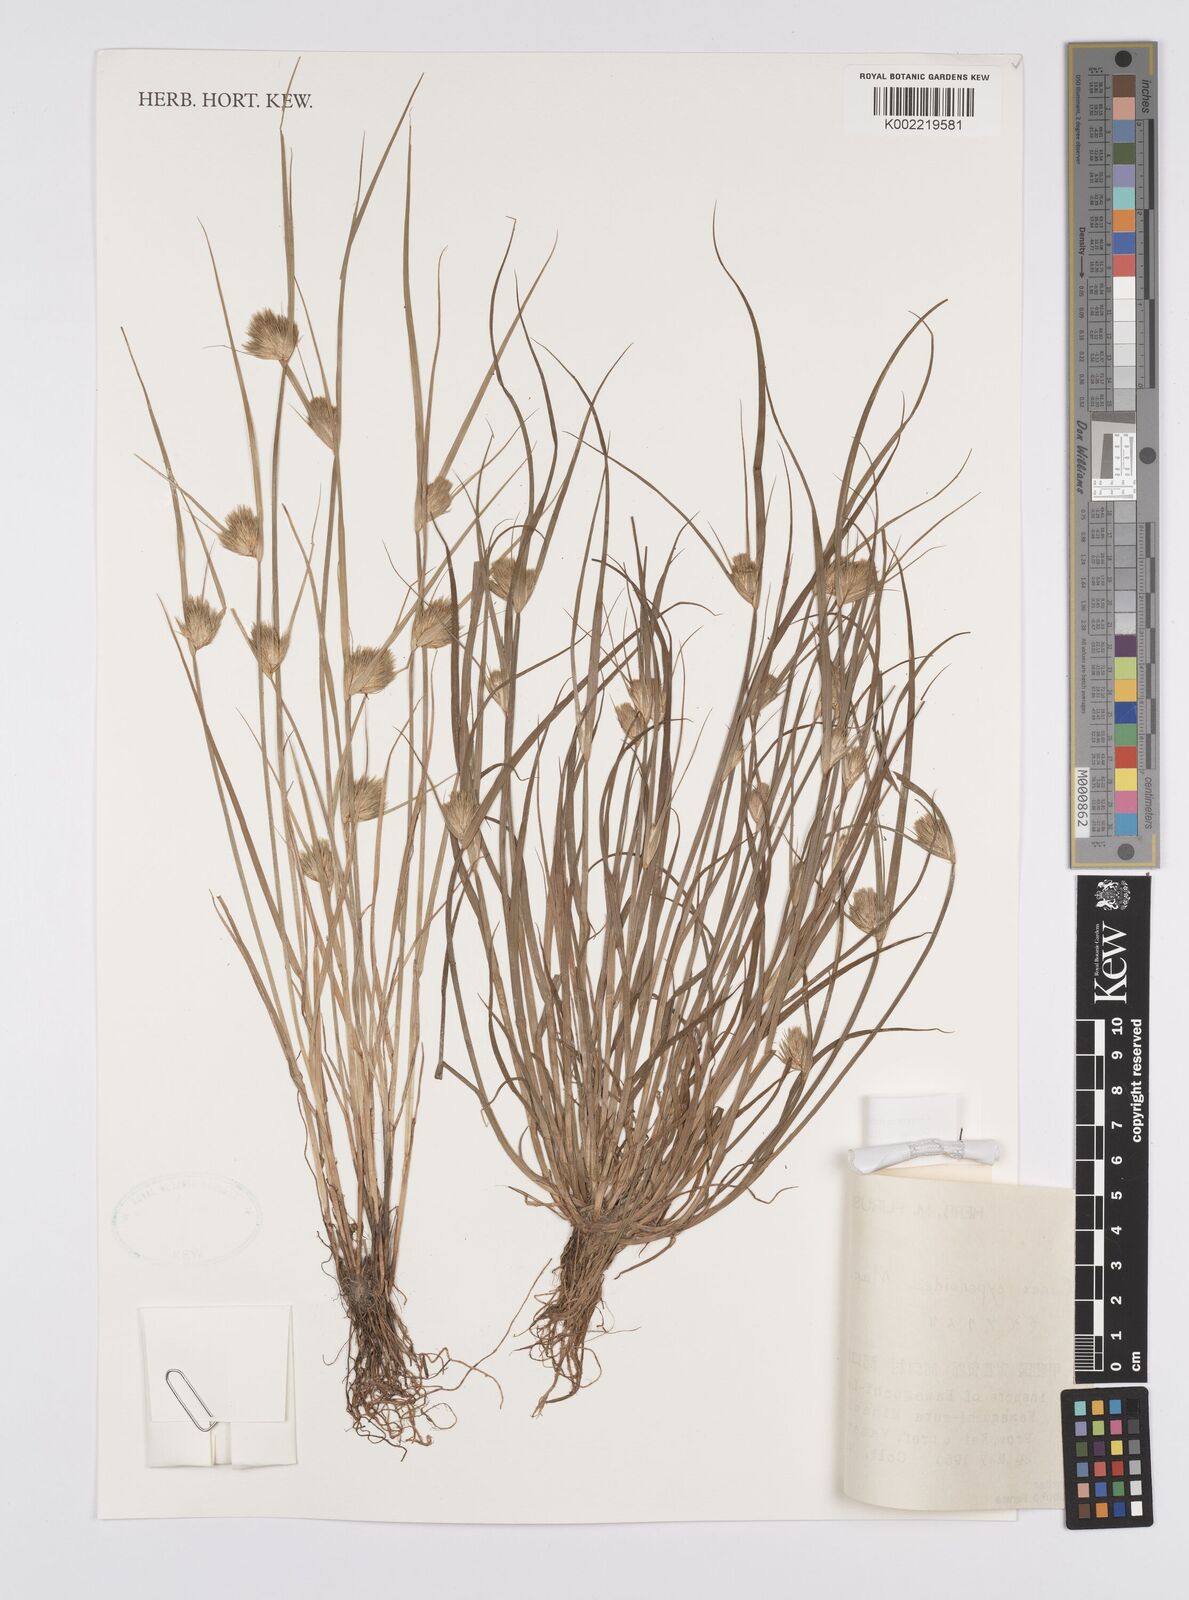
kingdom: Plantae
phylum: Tracheophyta
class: Liliopsida
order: Poales
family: Cyperaceae
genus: Carex
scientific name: Carex bohemica
